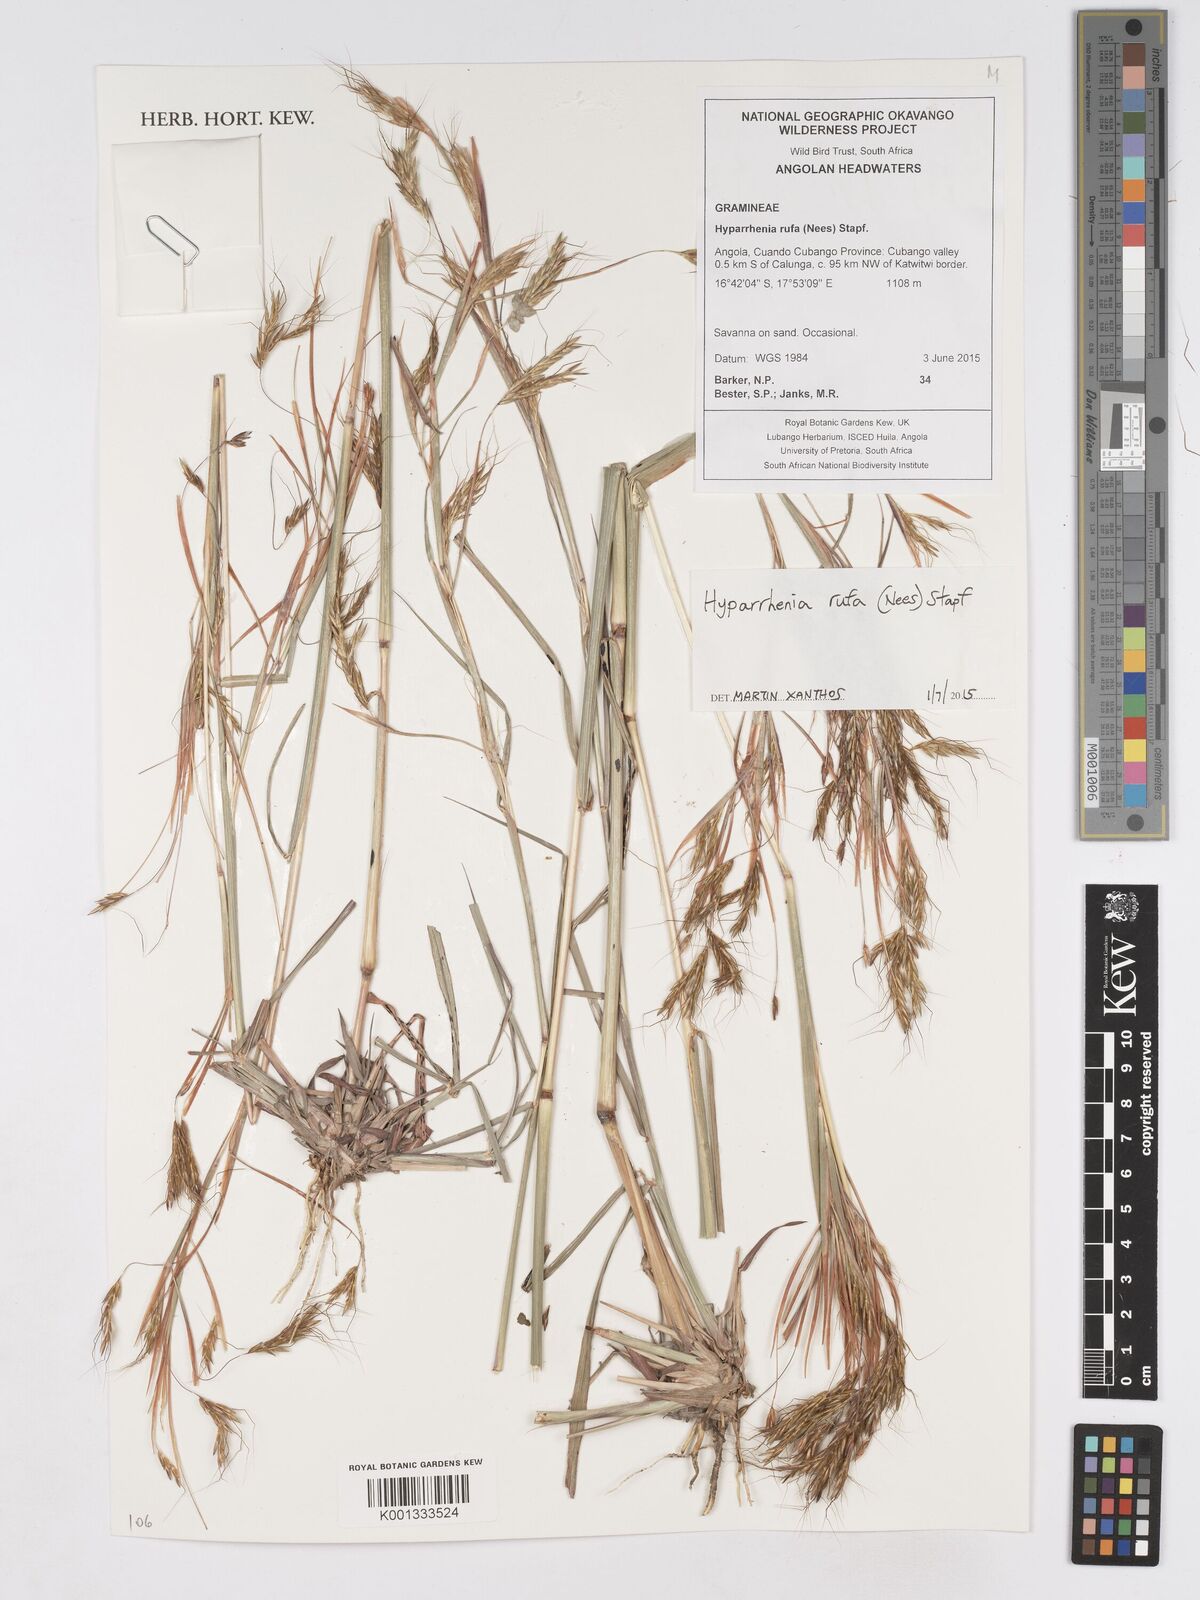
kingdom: Plantae
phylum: Tracheophyta
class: Liliopsida
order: Poales
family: Poaceae
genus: Hyparrhenia
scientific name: Hyparrhenia rufa
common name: Jaraguagrass
